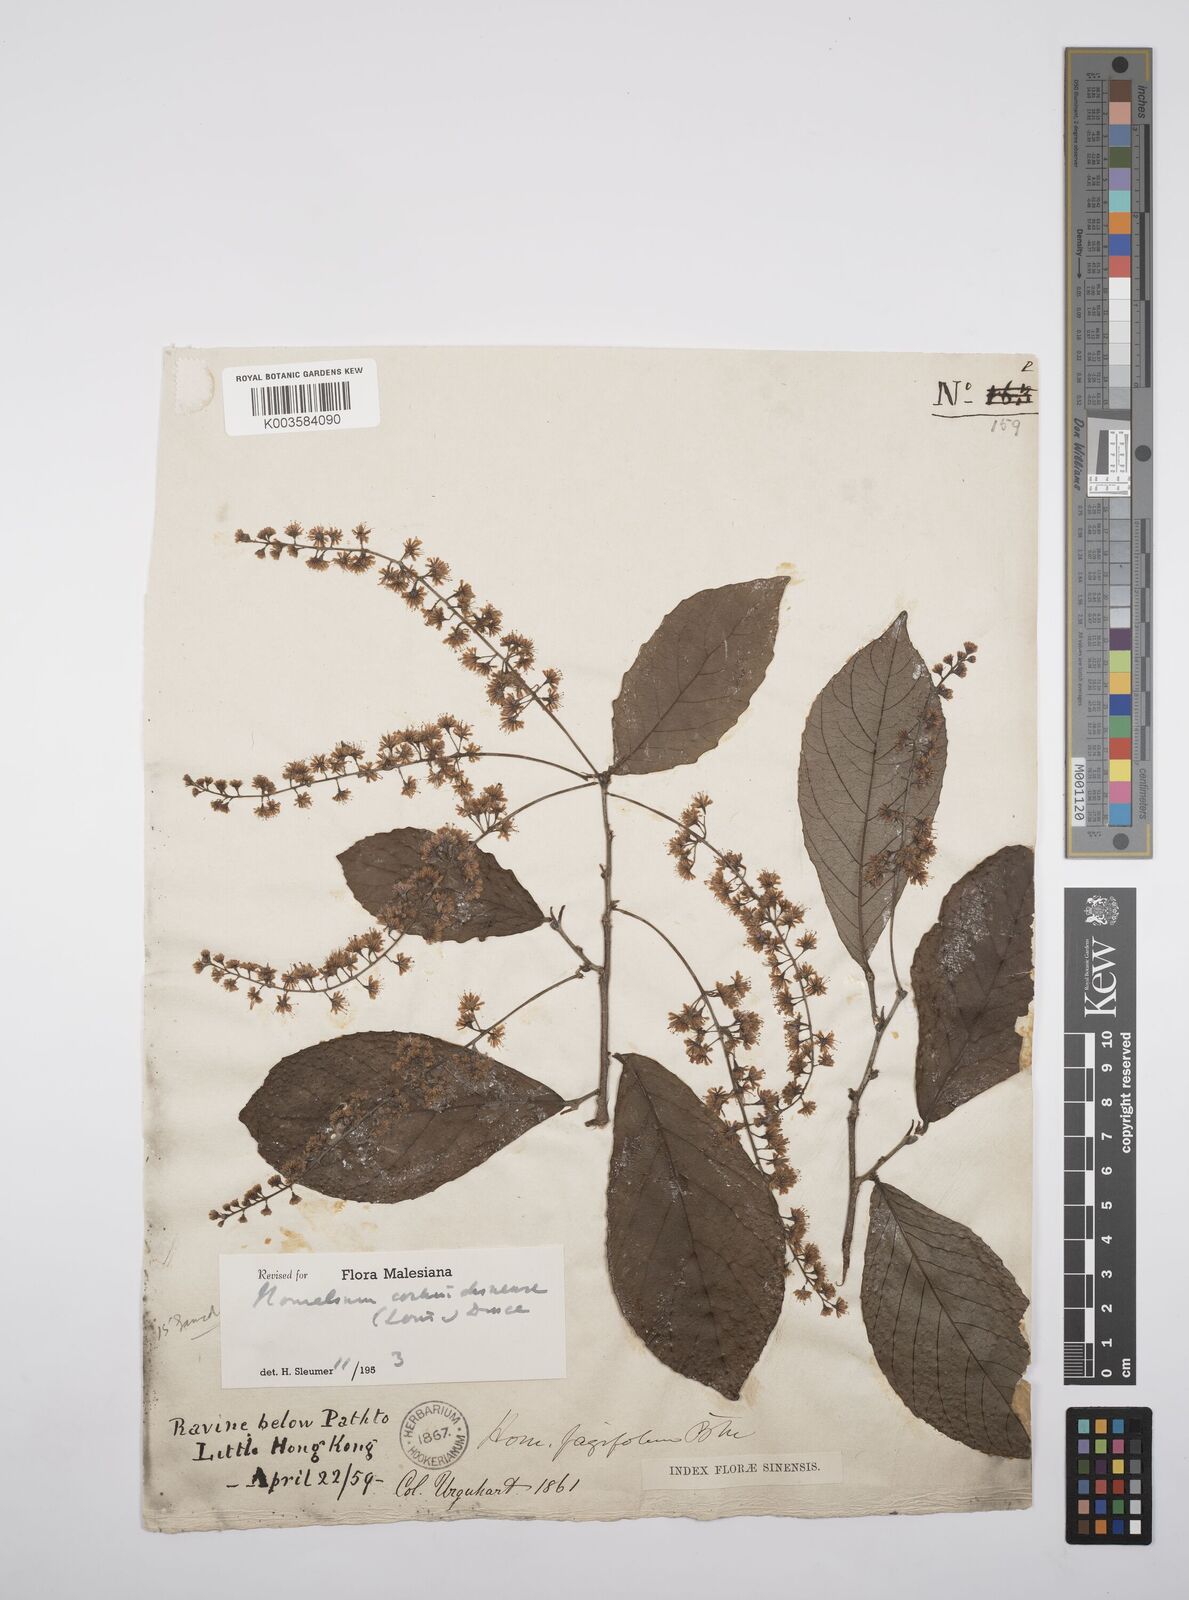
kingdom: Plantae
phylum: Tracheophyta
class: Magnoliopsida
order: Malpighiales
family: Salicaceae
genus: Homalium
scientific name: Homalium cochinchinensis
